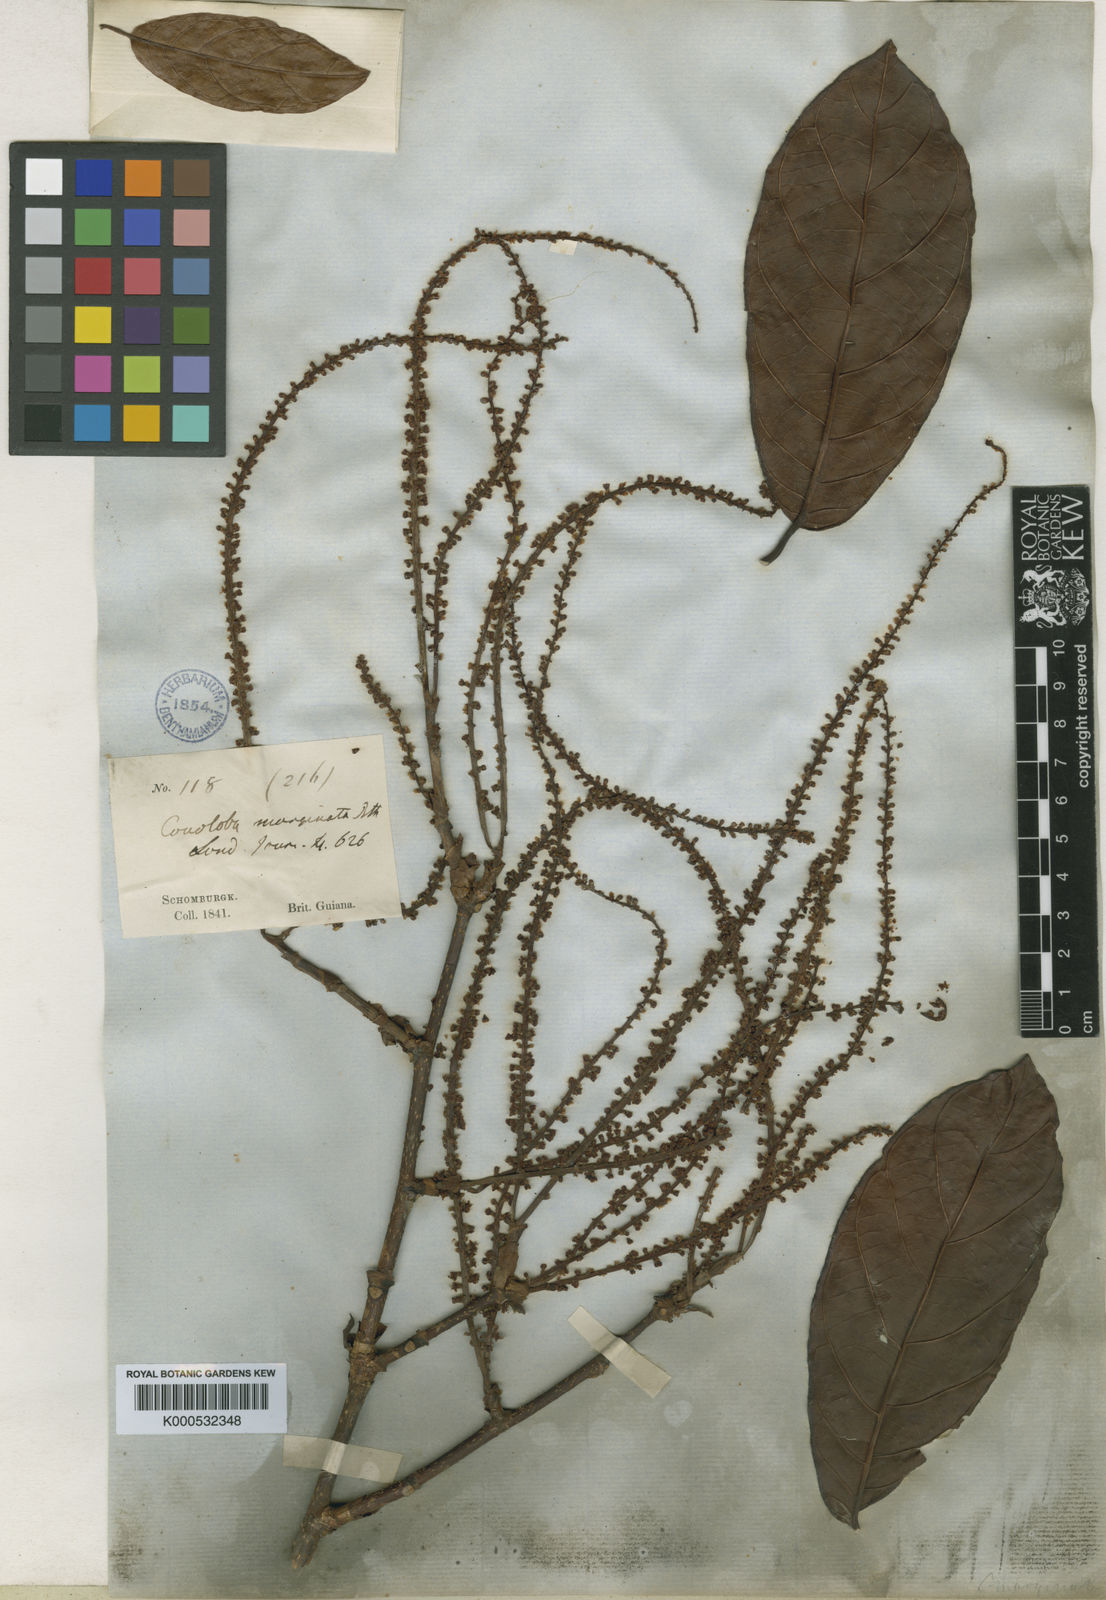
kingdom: Plantae
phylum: Tracheophyta
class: Magnoliopsida
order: Caryophyllales
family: Polygonaceae
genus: Coccoloba
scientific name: Coccoloba nitida
